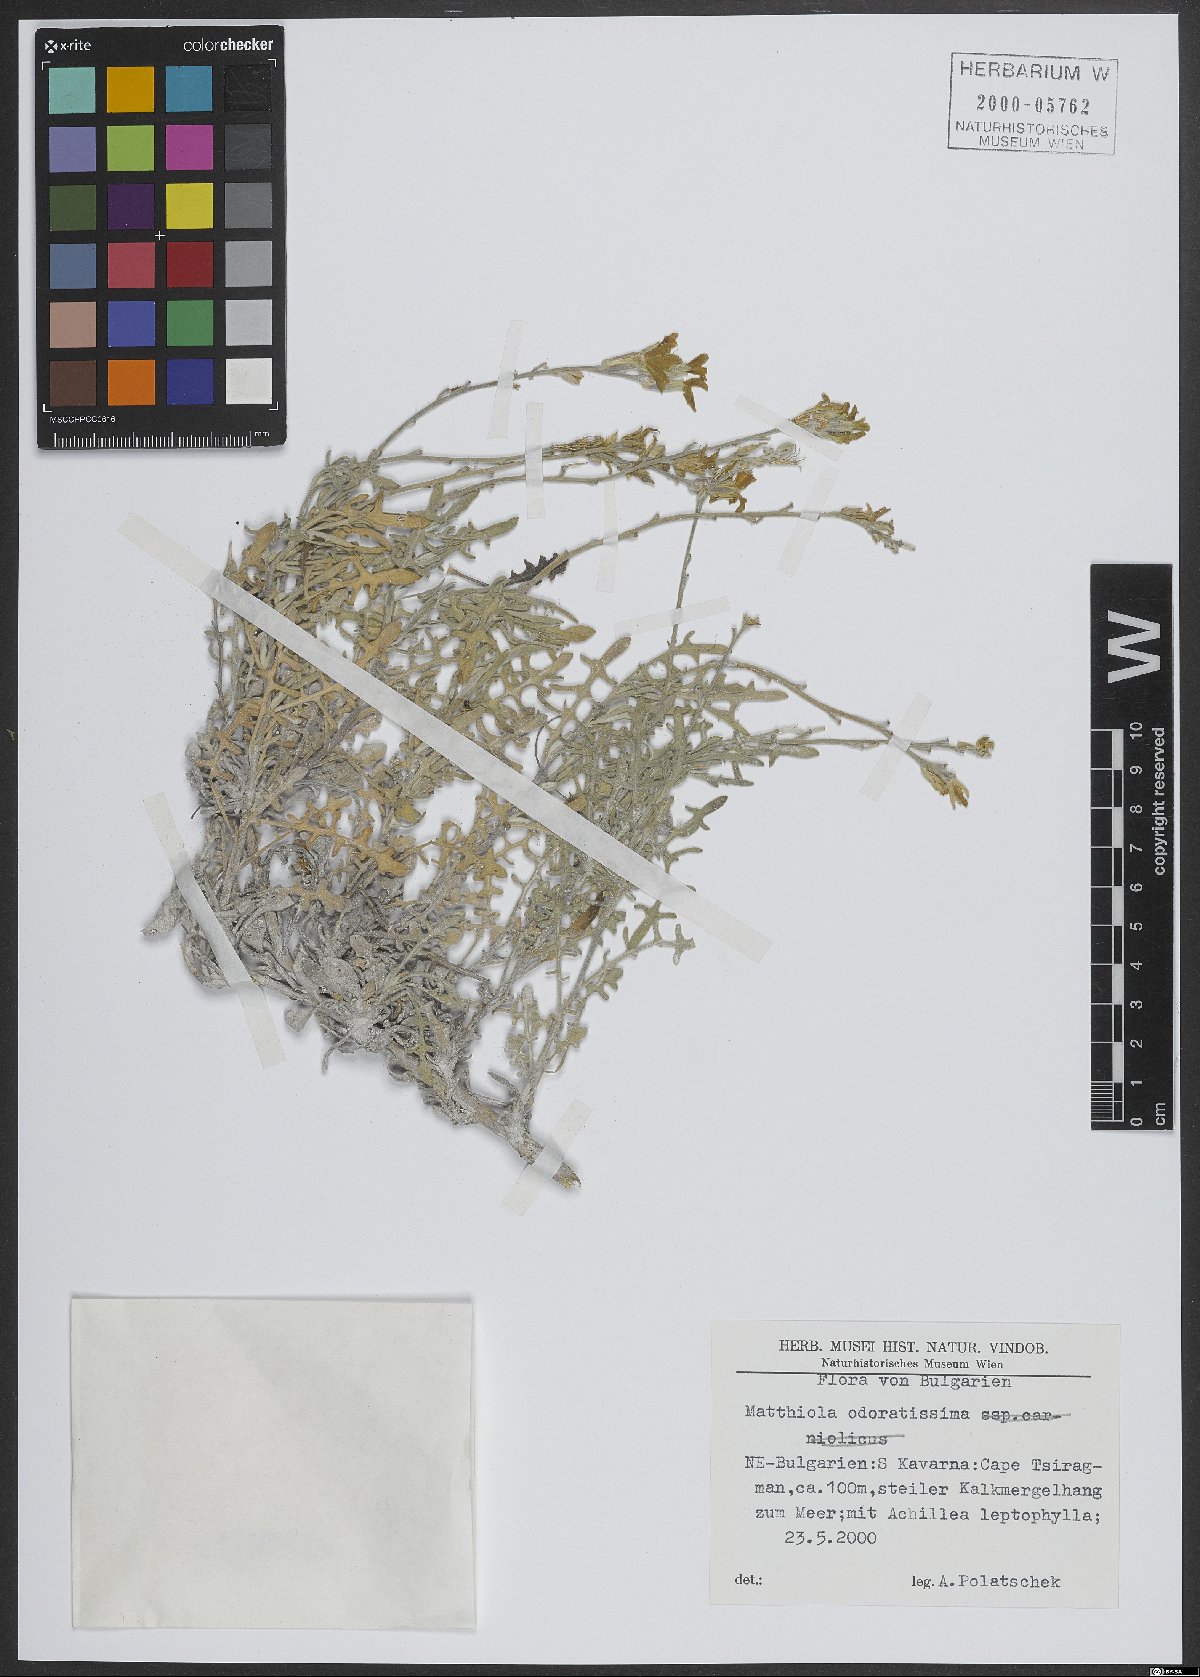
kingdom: Plantae
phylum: Tracheophyta
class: Magnoliopsida
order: Brassicales
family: Brassicaceae
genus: Matthiola
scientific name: Matthiola odoratissima
